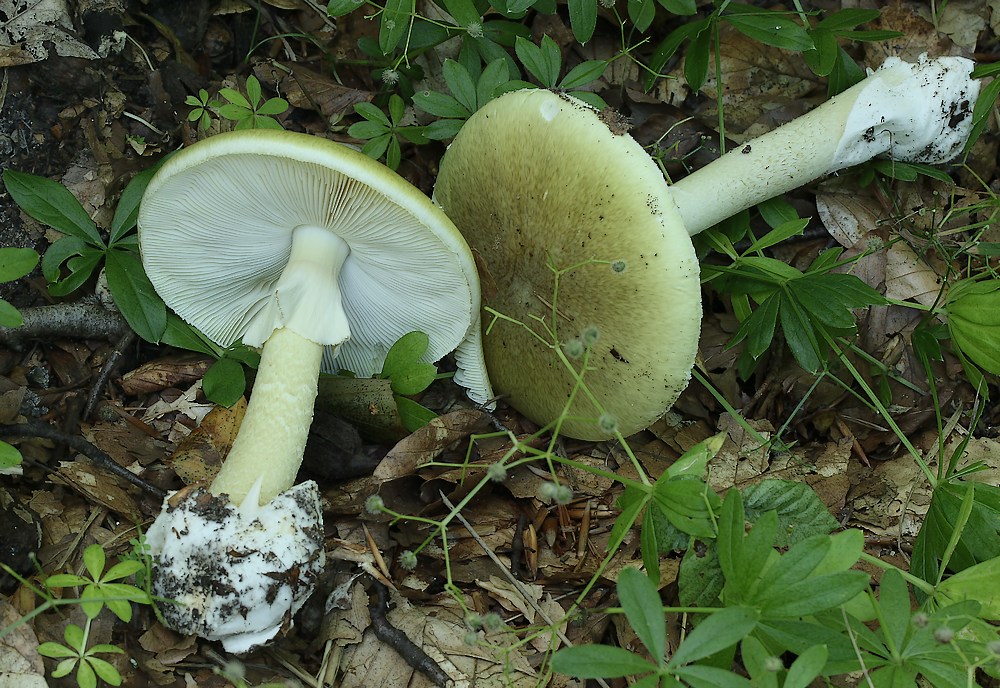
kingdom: Fungi
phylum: Basidiomycota
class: Agaricomycetes
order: Agaricales
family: Amanitaceae
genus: Amanita
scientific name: Amanita phalloides
